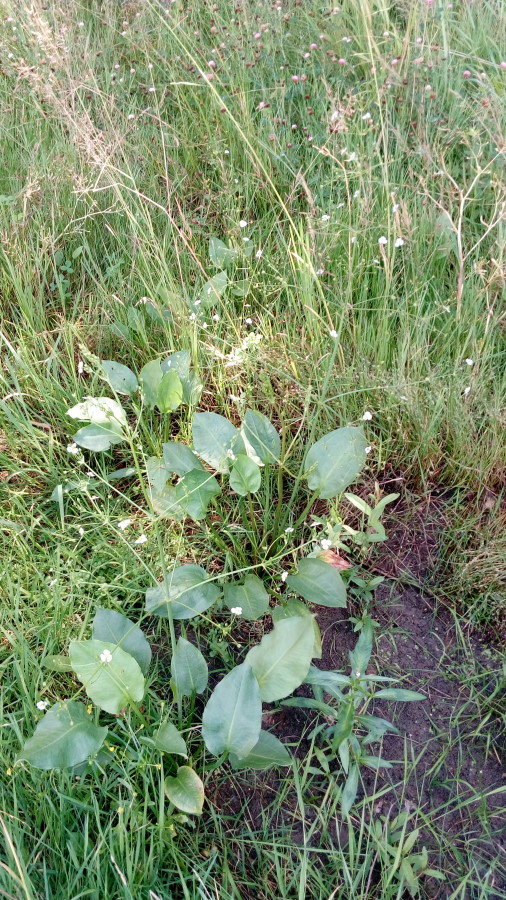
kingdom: Plantae
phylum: Tracheophyta
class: Liliopsida
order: Alismatales
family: Alismataceae
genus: Alisma
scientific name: Alisma plantago-aquatica
